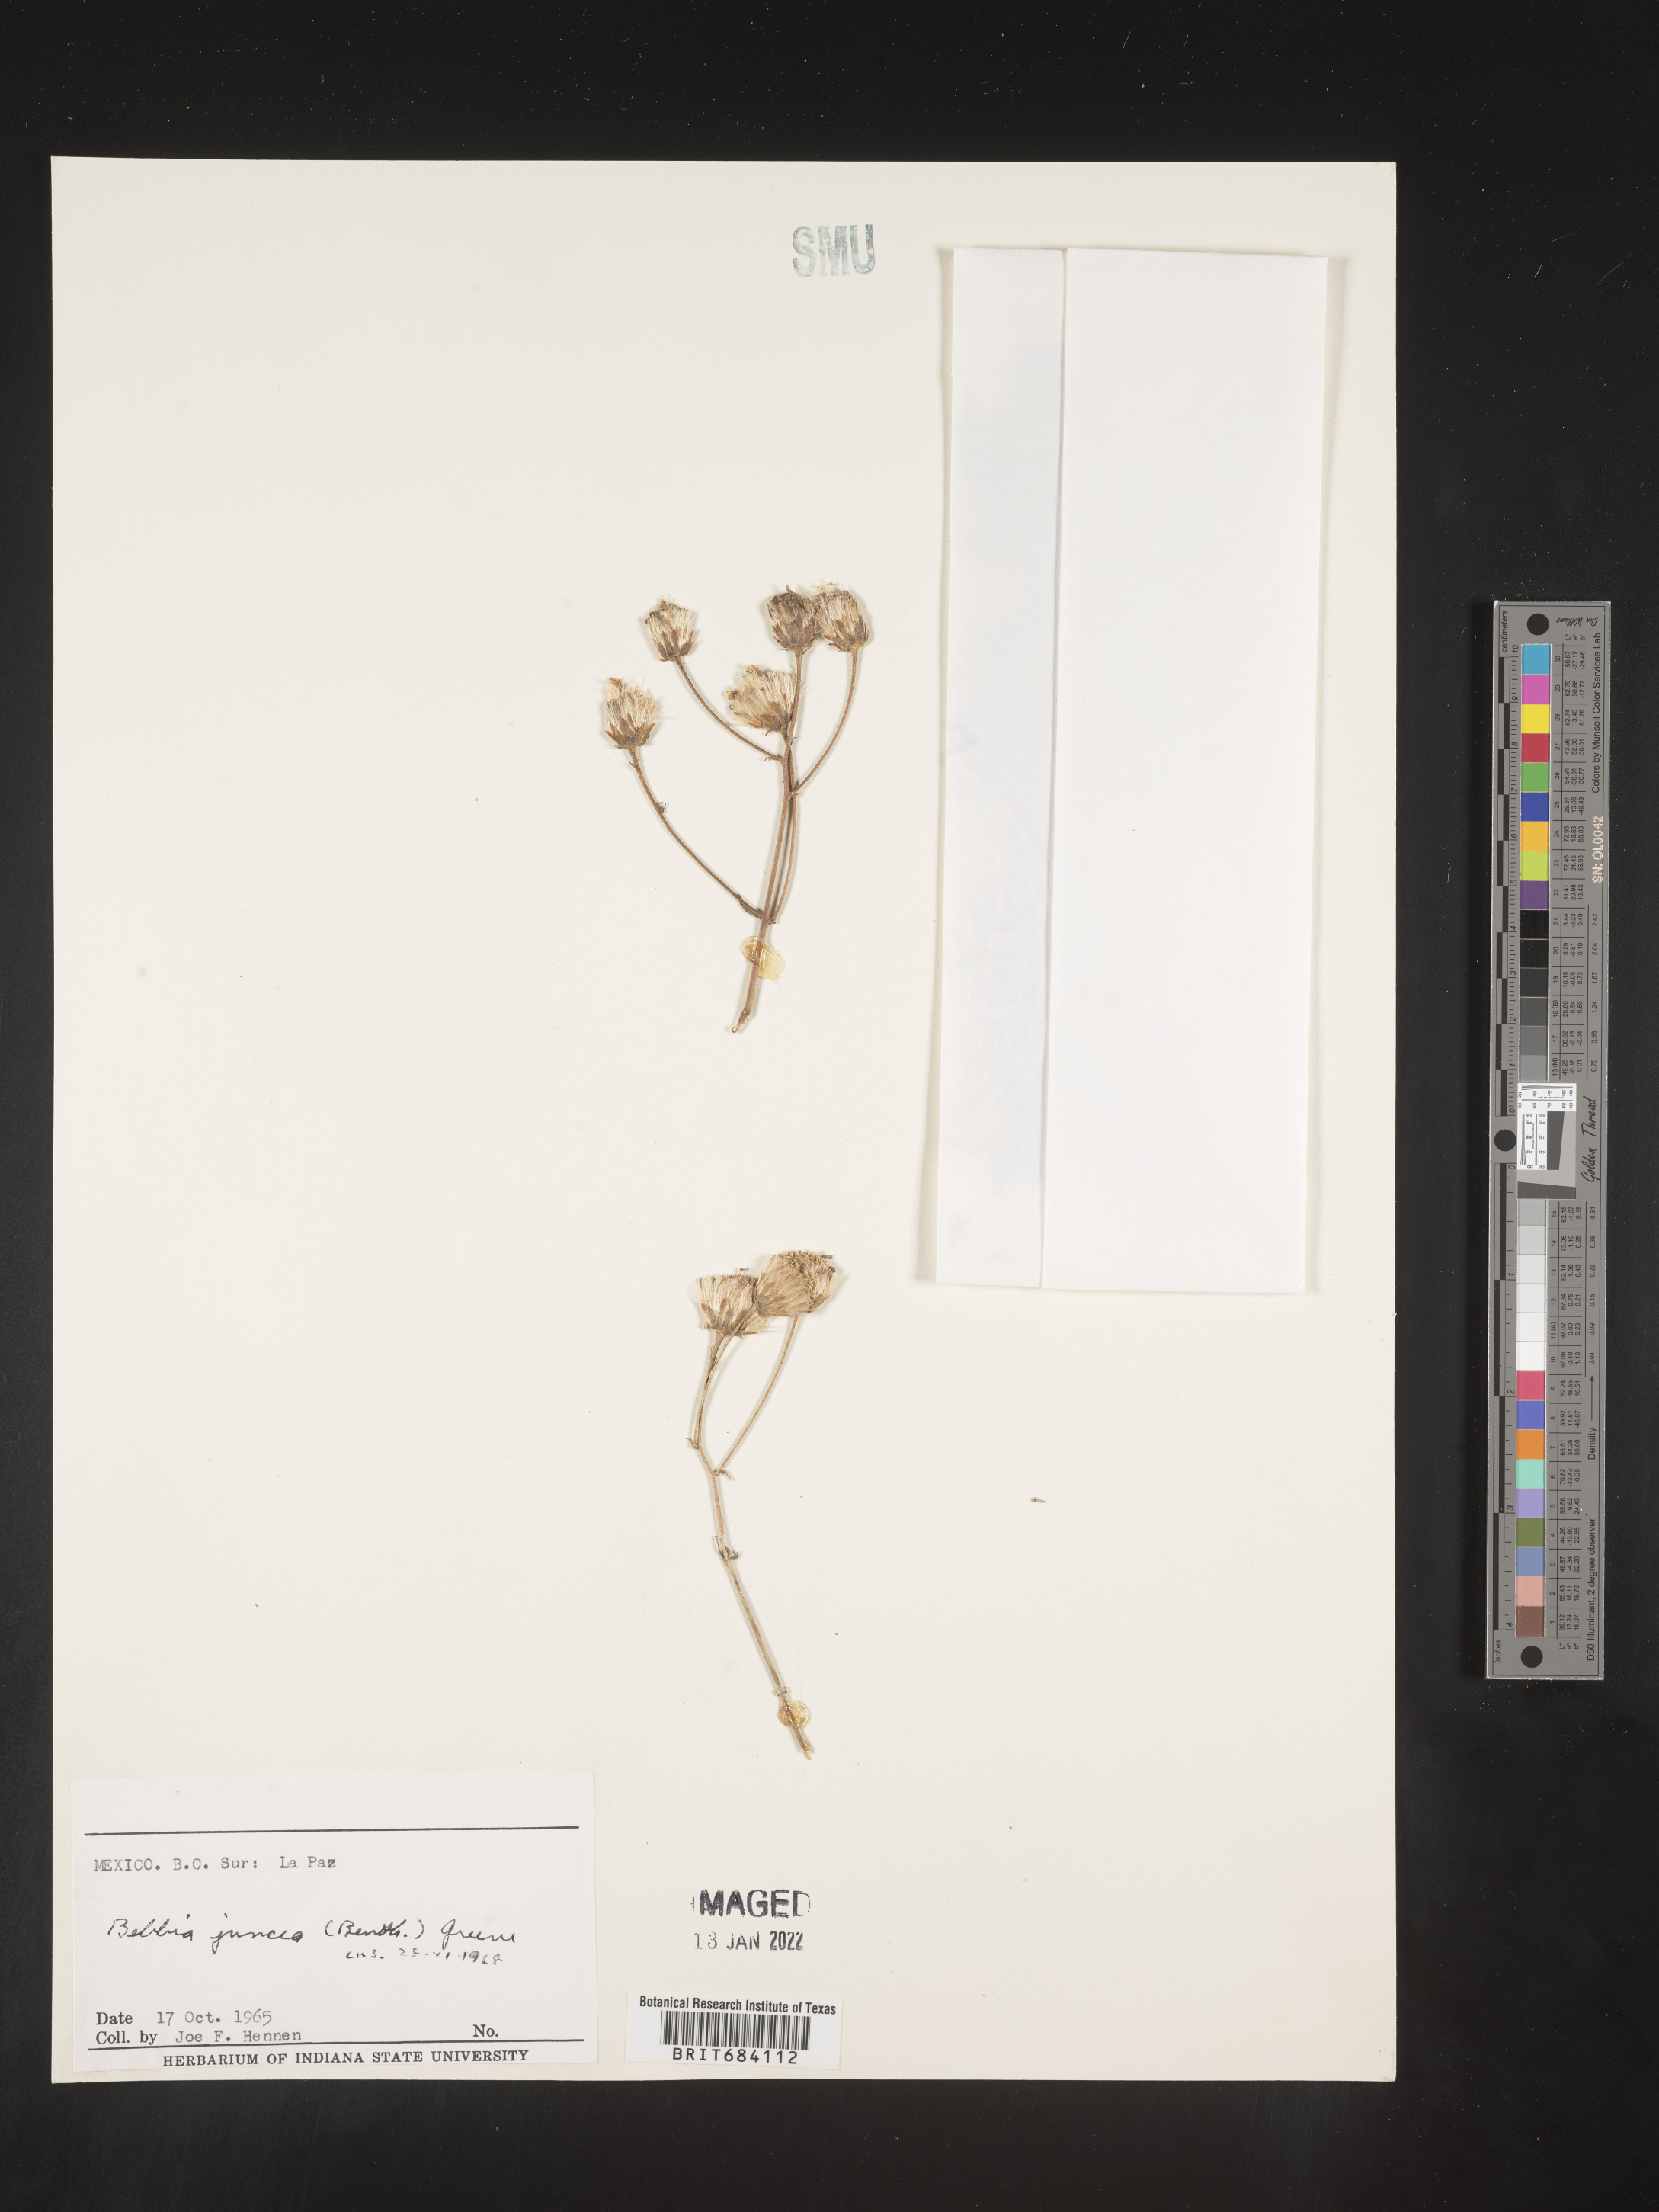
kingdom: Plantae
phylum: Tracheophyta
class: Magnoliopsida
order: Asterales
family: Asteraceae
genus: Bebbia
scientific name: Bebbia
